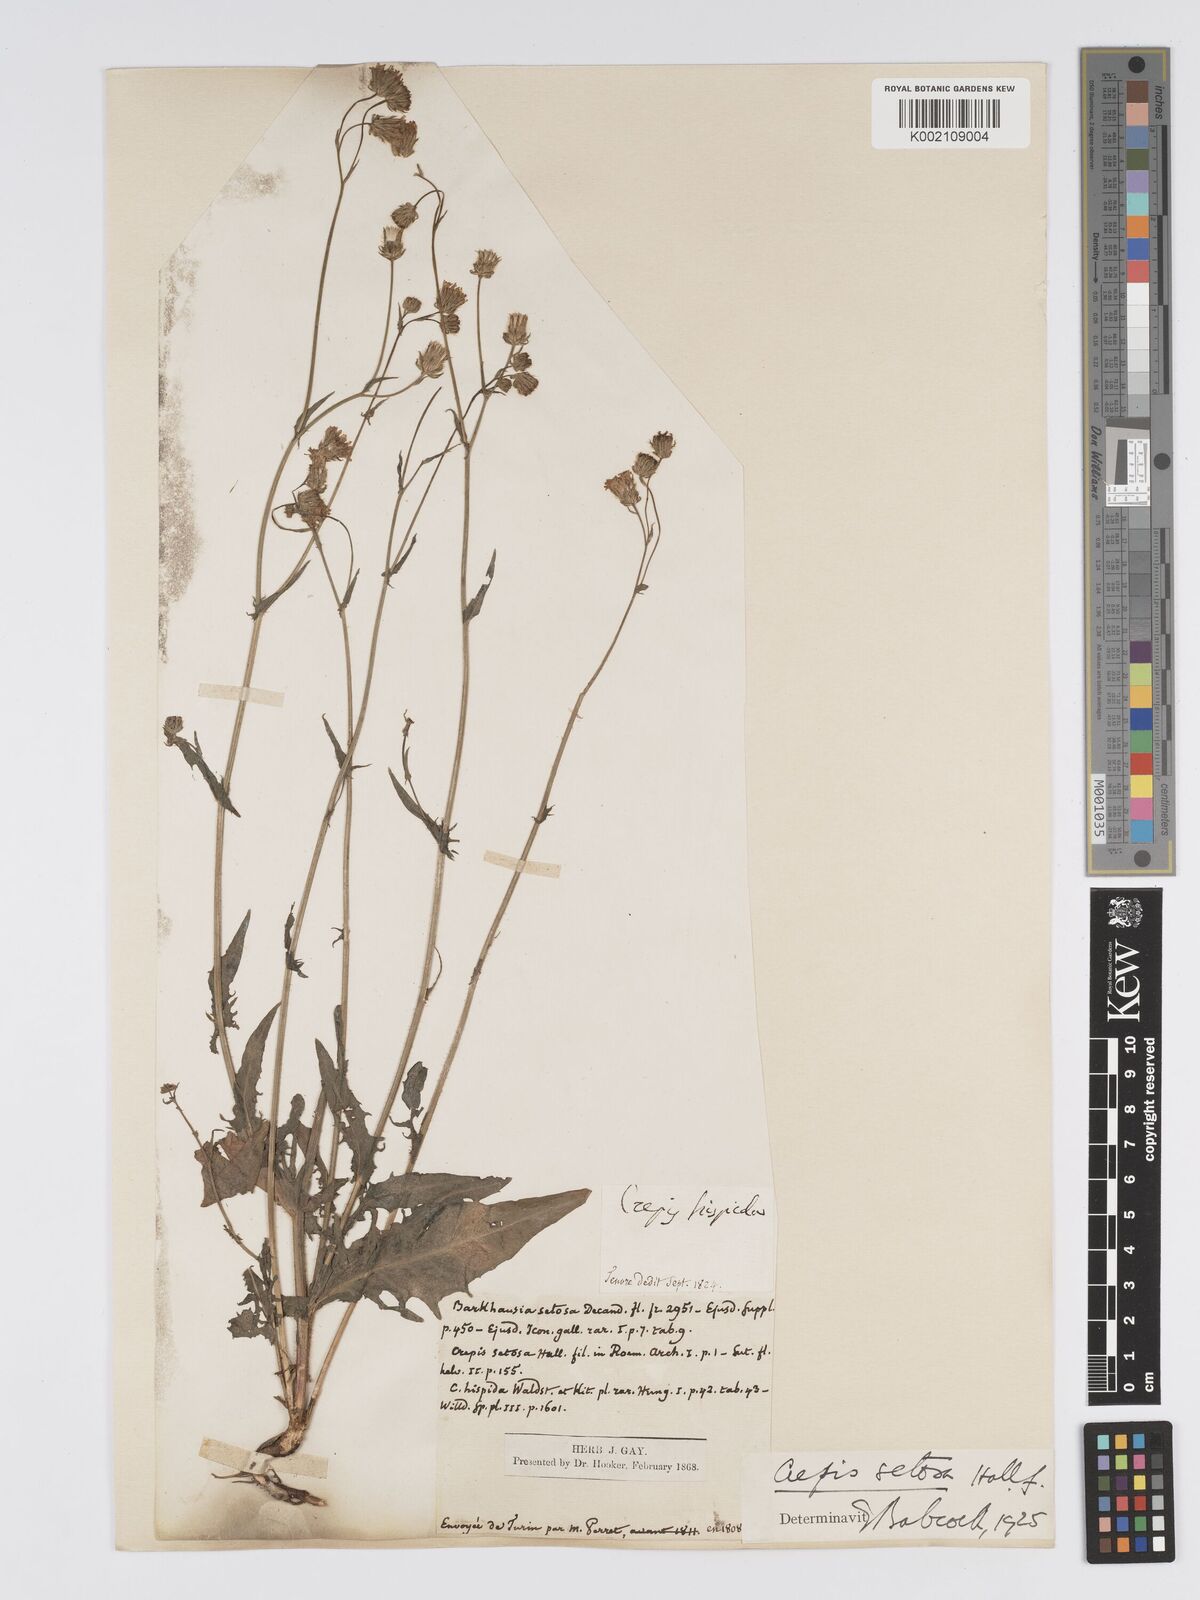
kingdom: Plantae
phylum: Tracheophyta
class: Magnoliopsida
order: Asterales
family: Asteraceae
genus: Crepis
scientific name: Crepis setosa
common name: Bristly hawk's-beard
